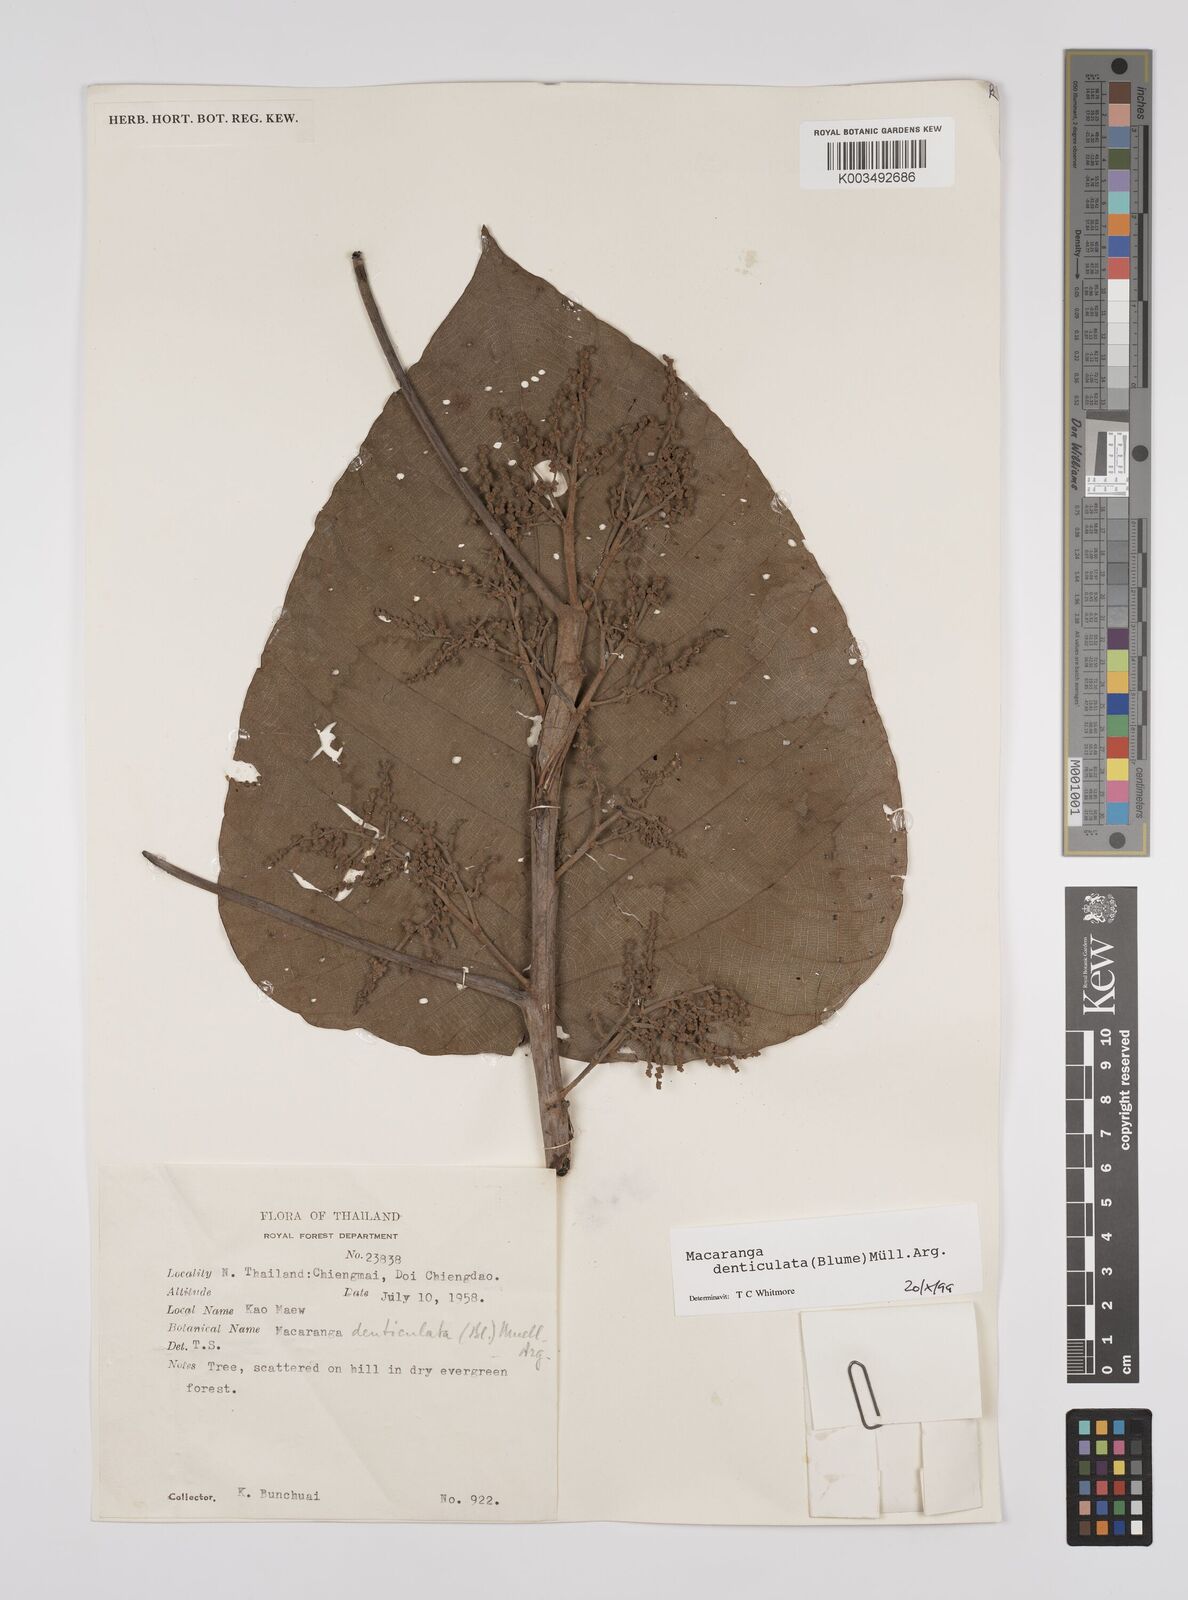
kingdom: Plantae
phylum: Tracheophyta
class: Magnoliopsida
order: Malpighiales
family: Euphorbiaceae
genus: Macaranga
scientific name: Macaranga denticulata
